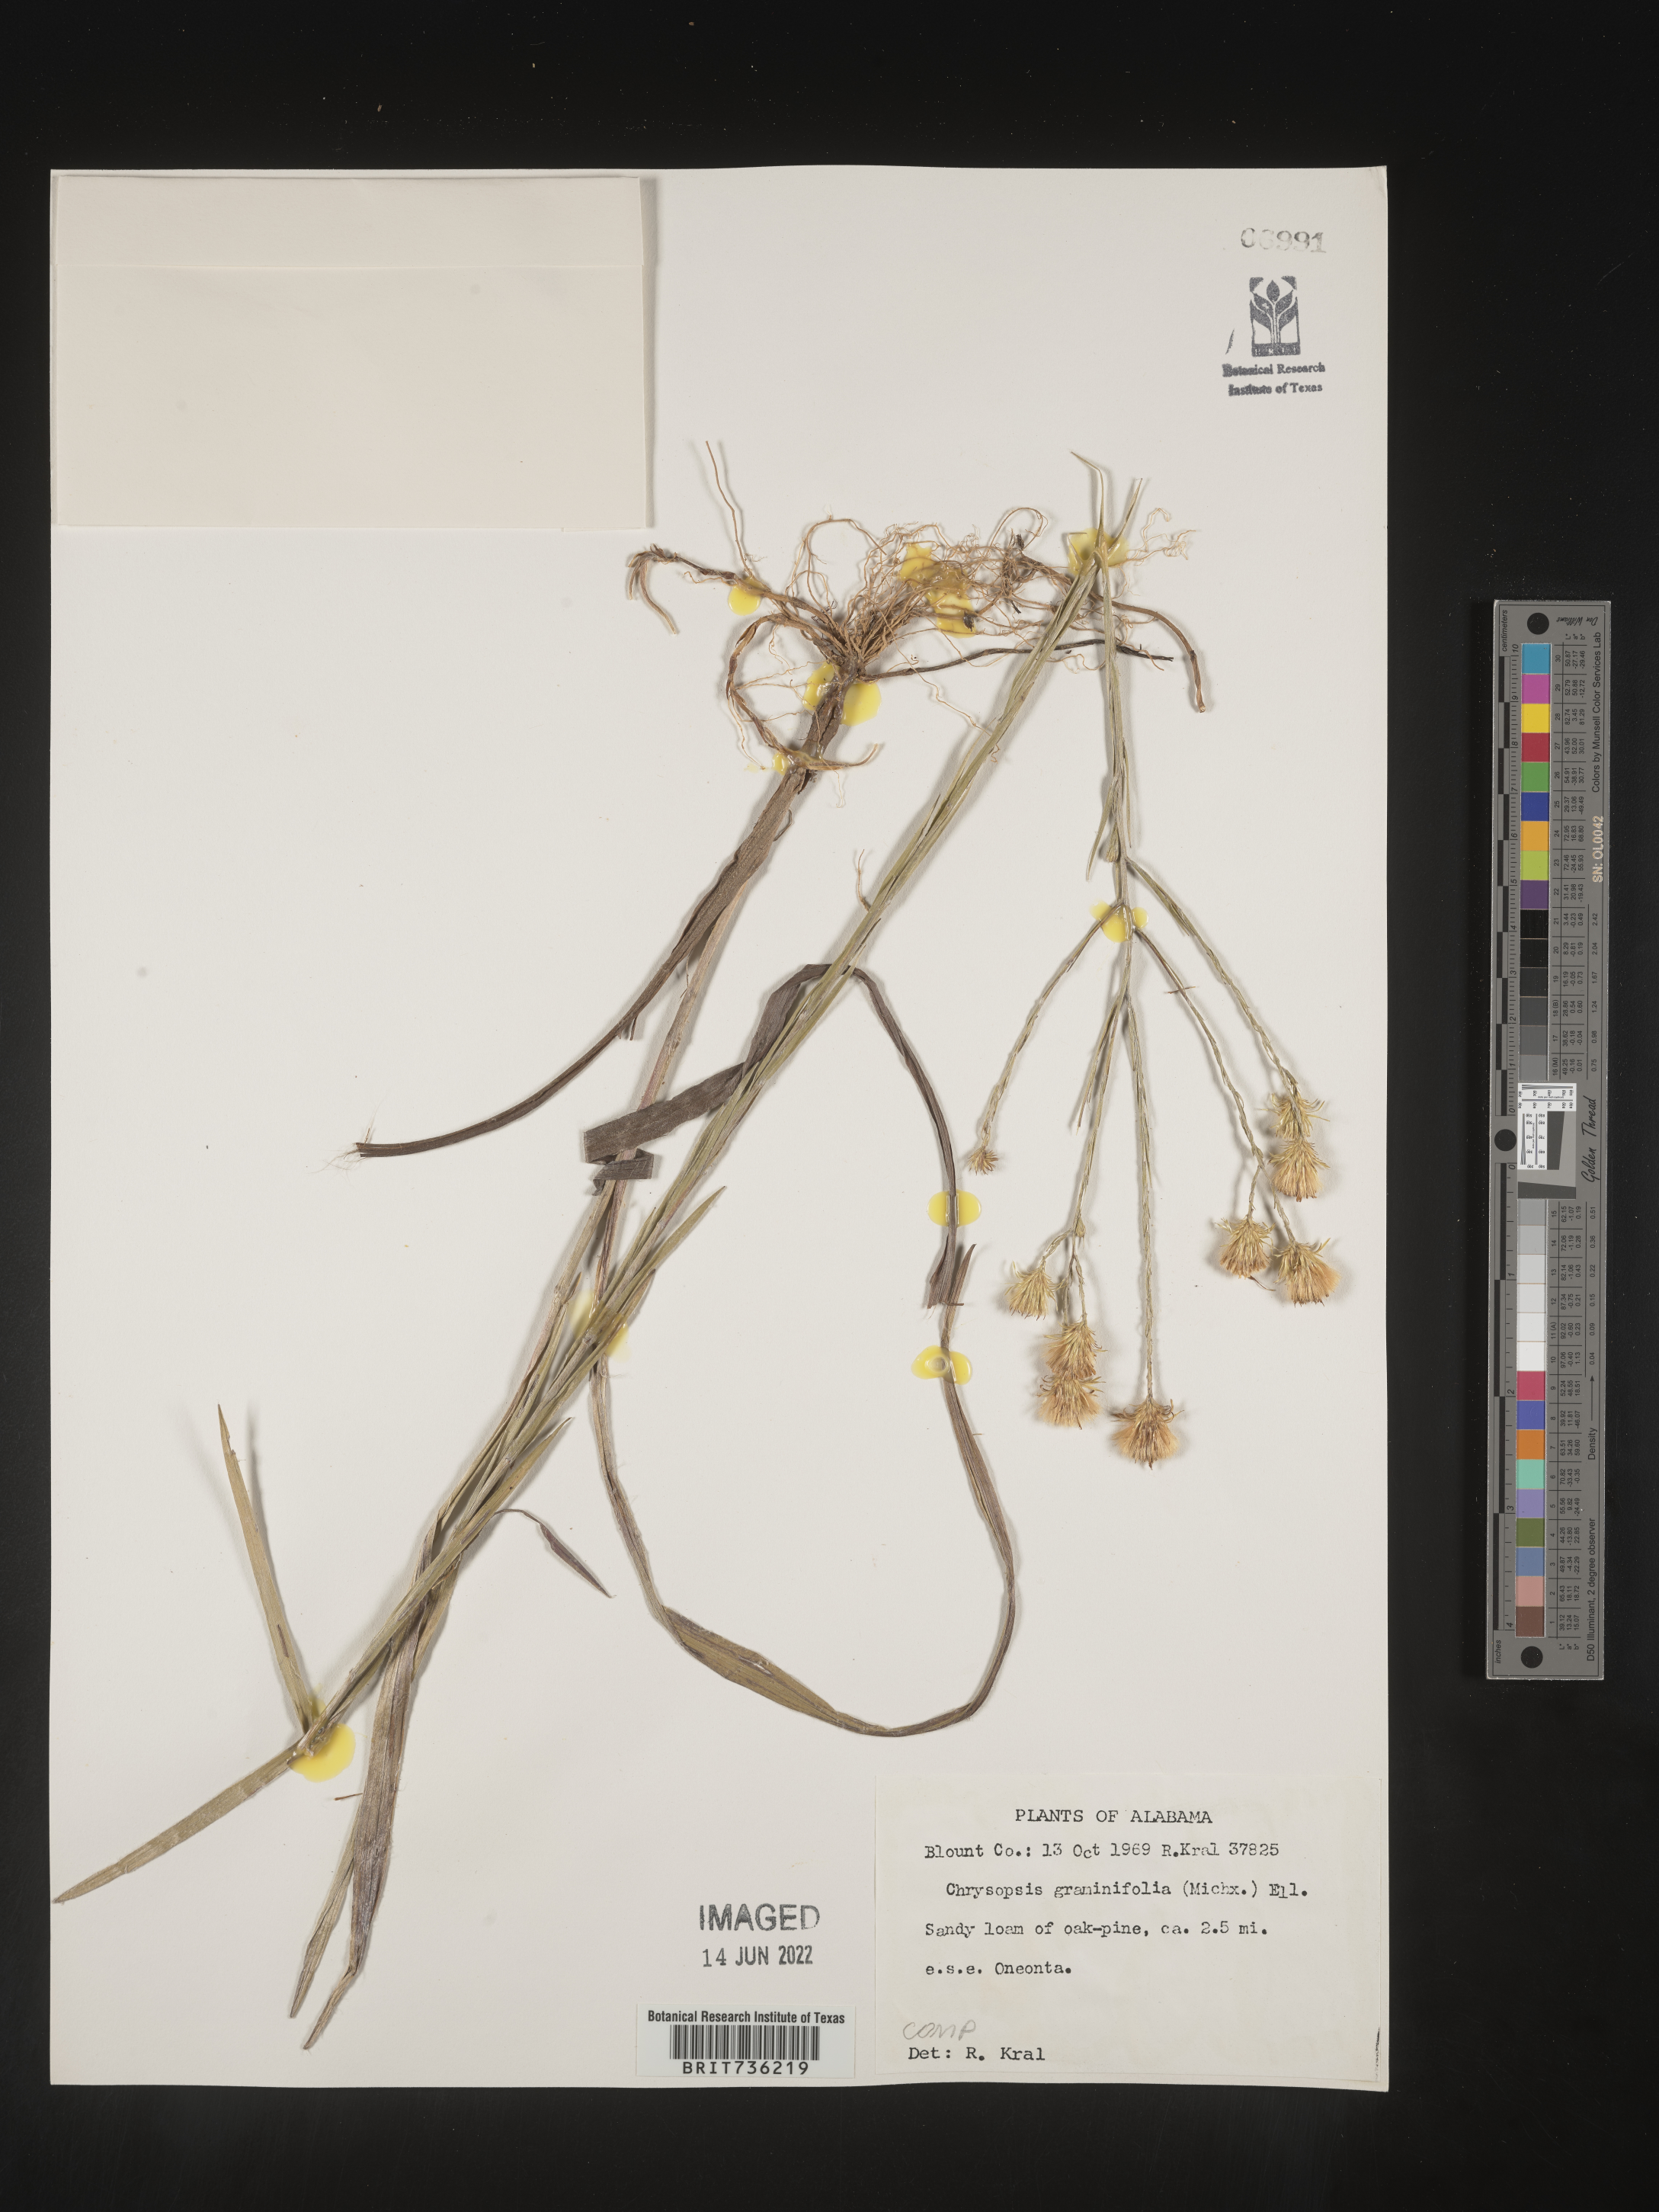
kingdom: Plantae
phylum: Tracheophyta
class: Magnoliopsida
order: Asterales
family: Asteraceae
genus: Pityopsis
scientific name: Pityopsis graminifolia
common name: Grass-leaf golden-aster
